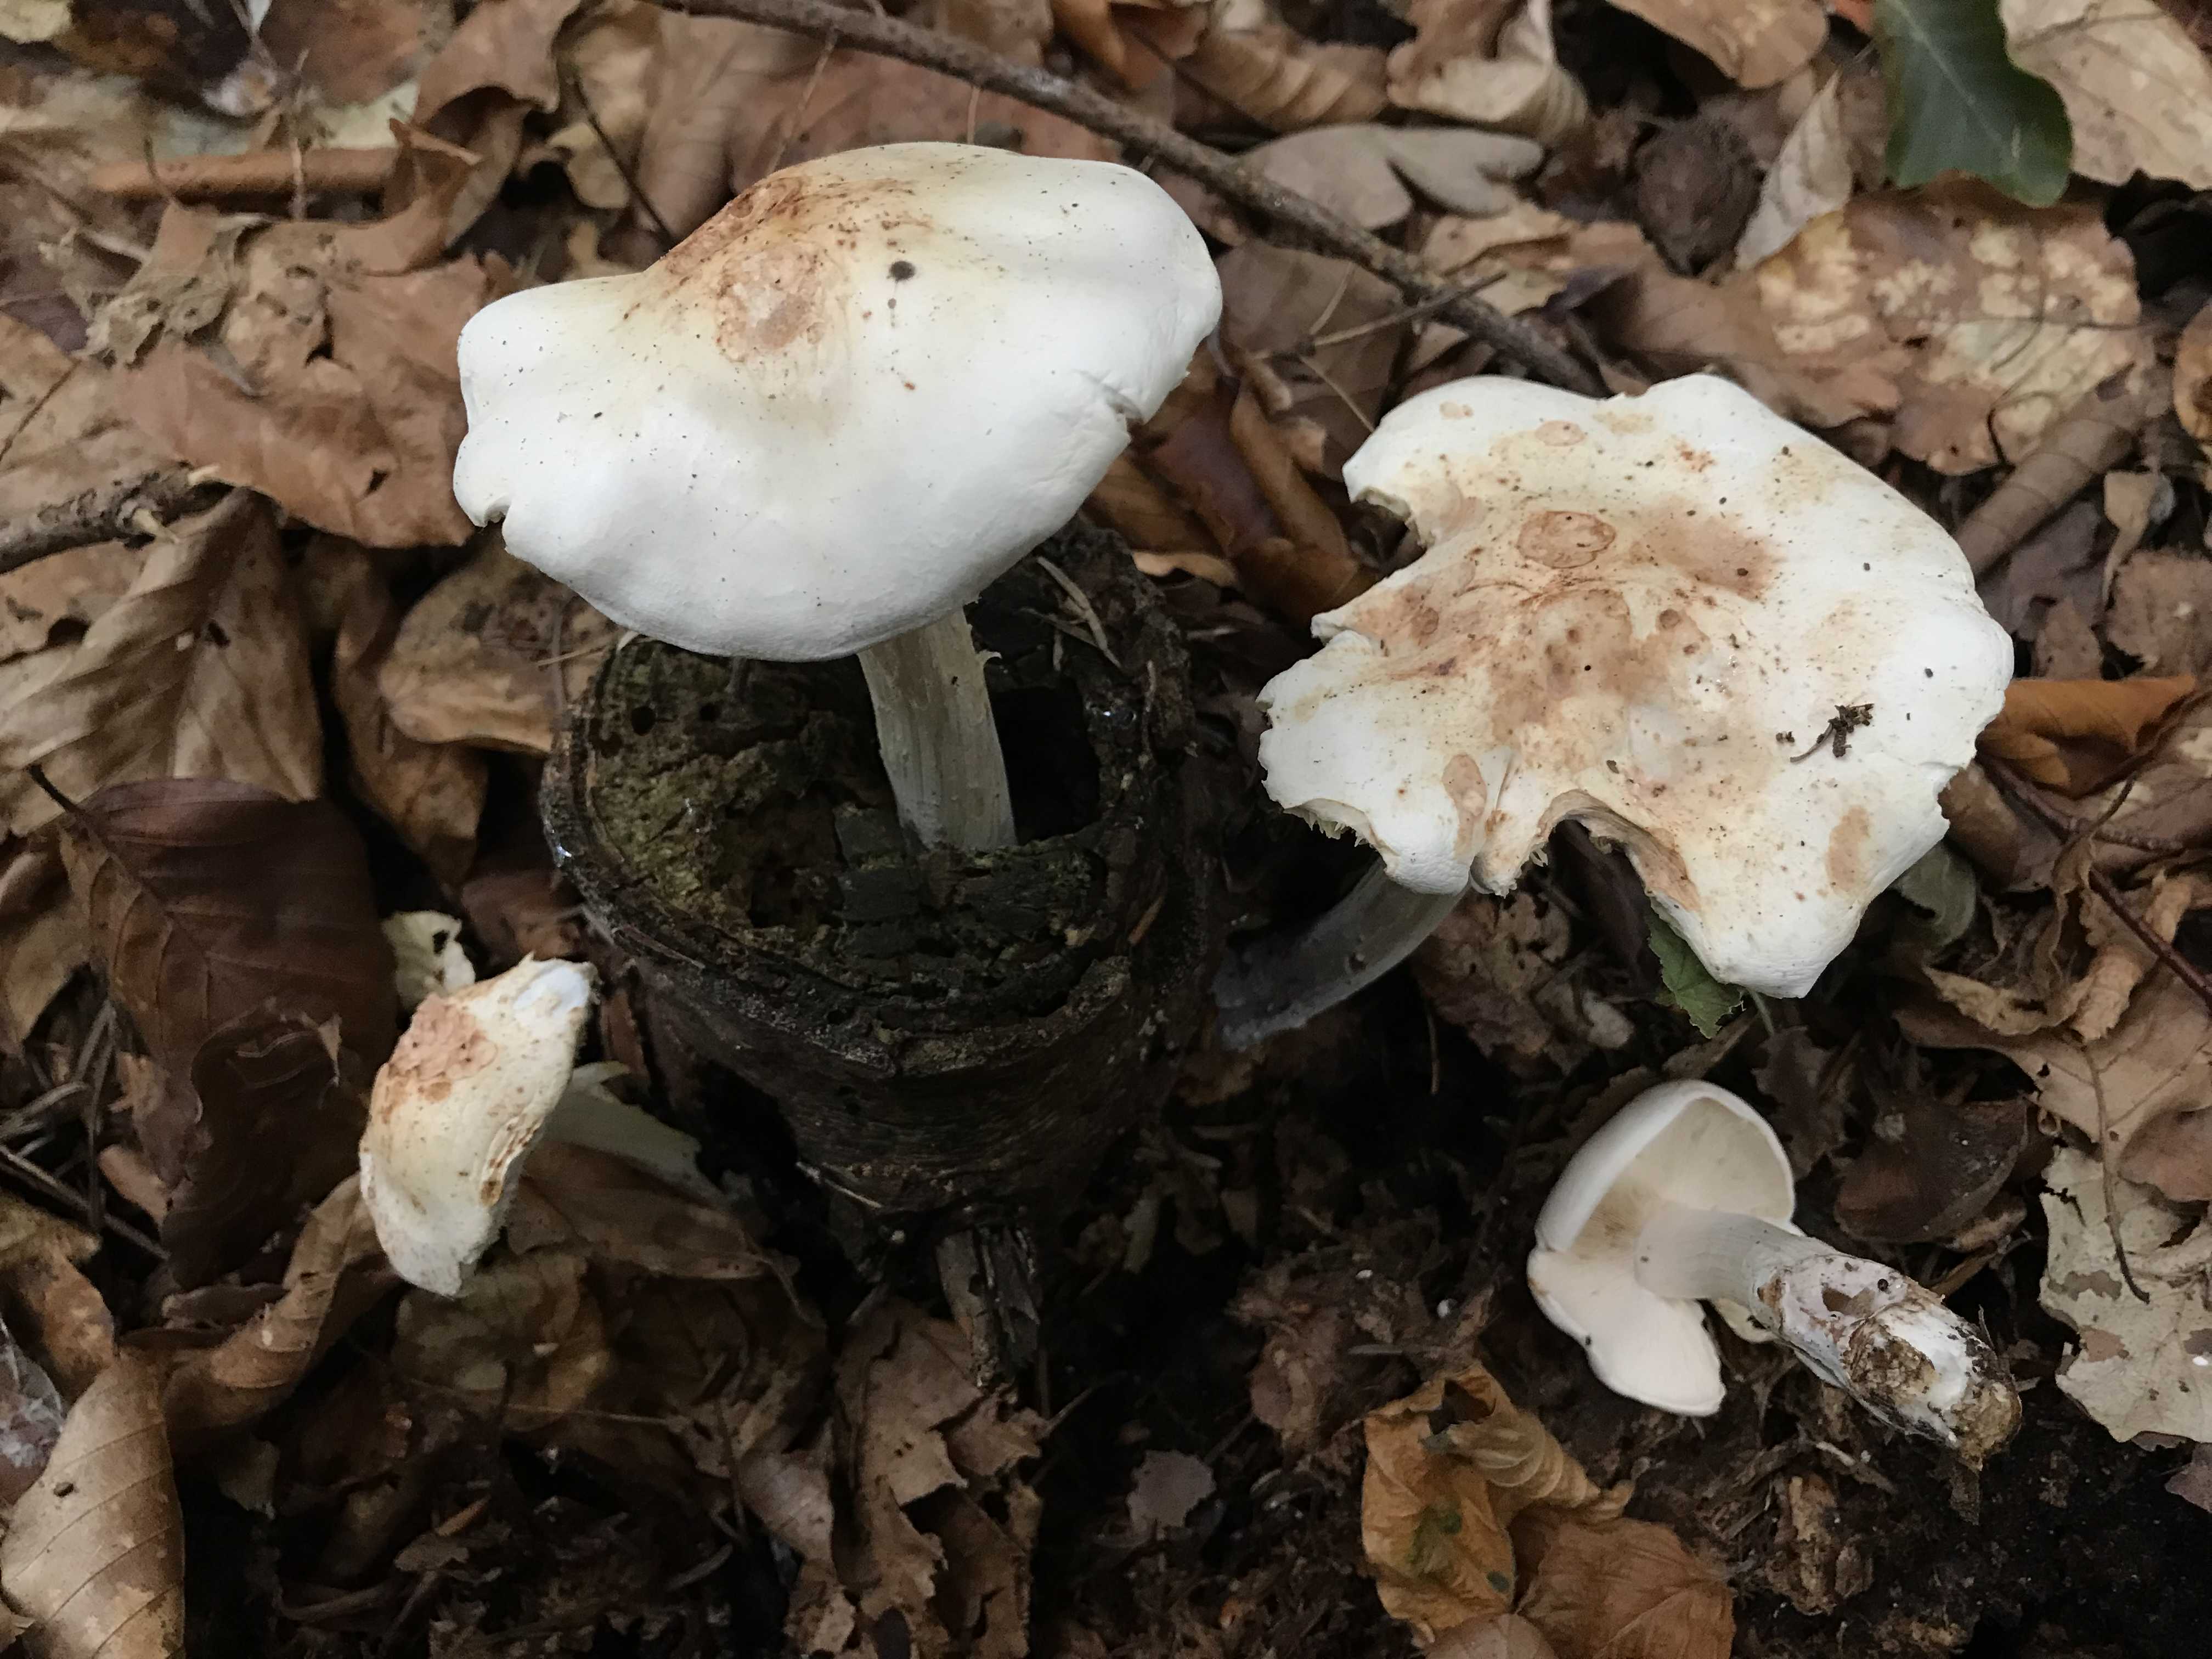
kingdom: Fungi
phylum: Basidiomycota
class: Agaricomycetes
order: Agaricales
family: Omphalotaceae
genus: Rhodocollybia
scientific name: Rhodocollybia maculata
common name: plettet fladhat
